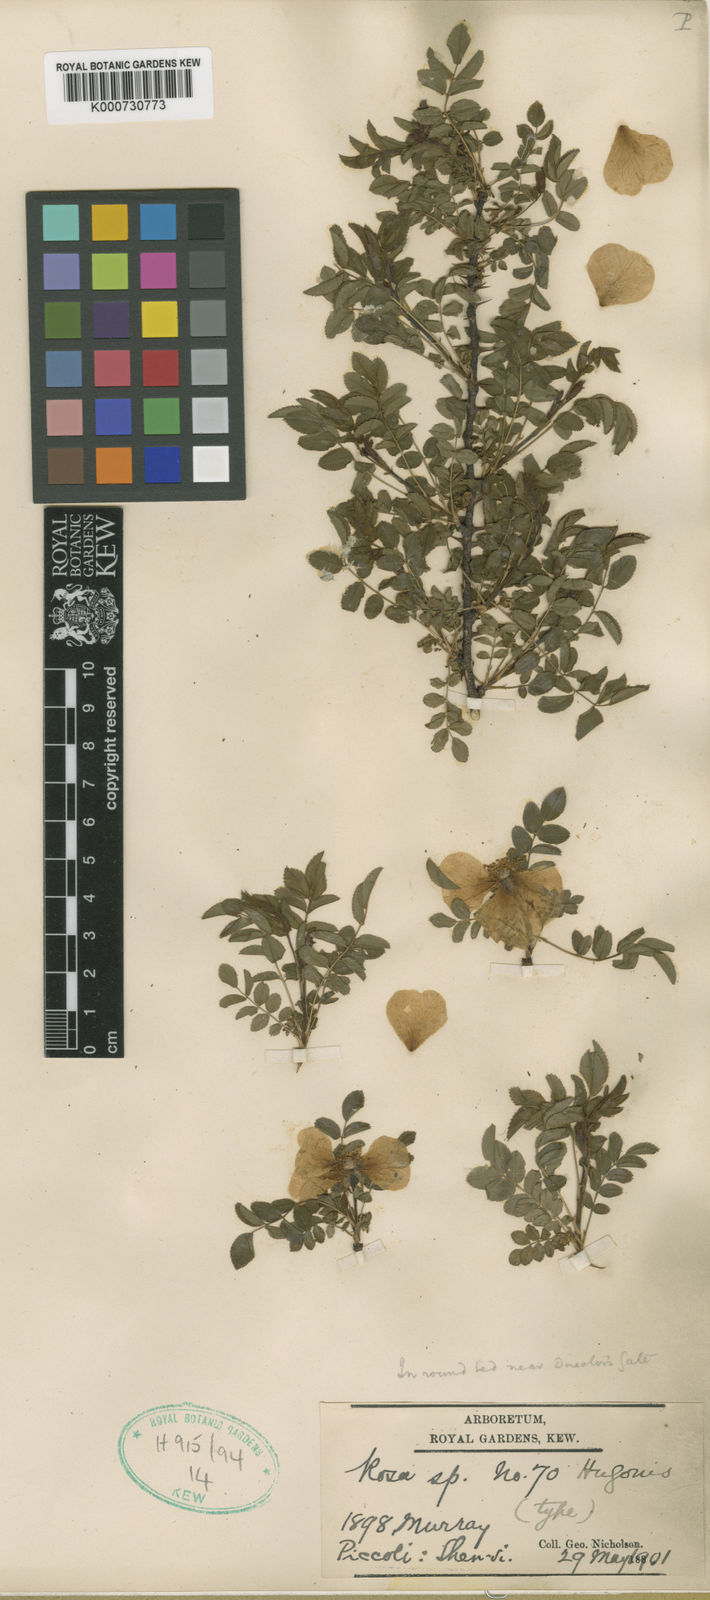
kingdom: Plantae
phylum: Tracheophyta
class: Magnoliopsida
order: Rosales
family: Rosaceae
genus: Rosa
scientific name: Rosa xanthina
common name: Yellow rose
